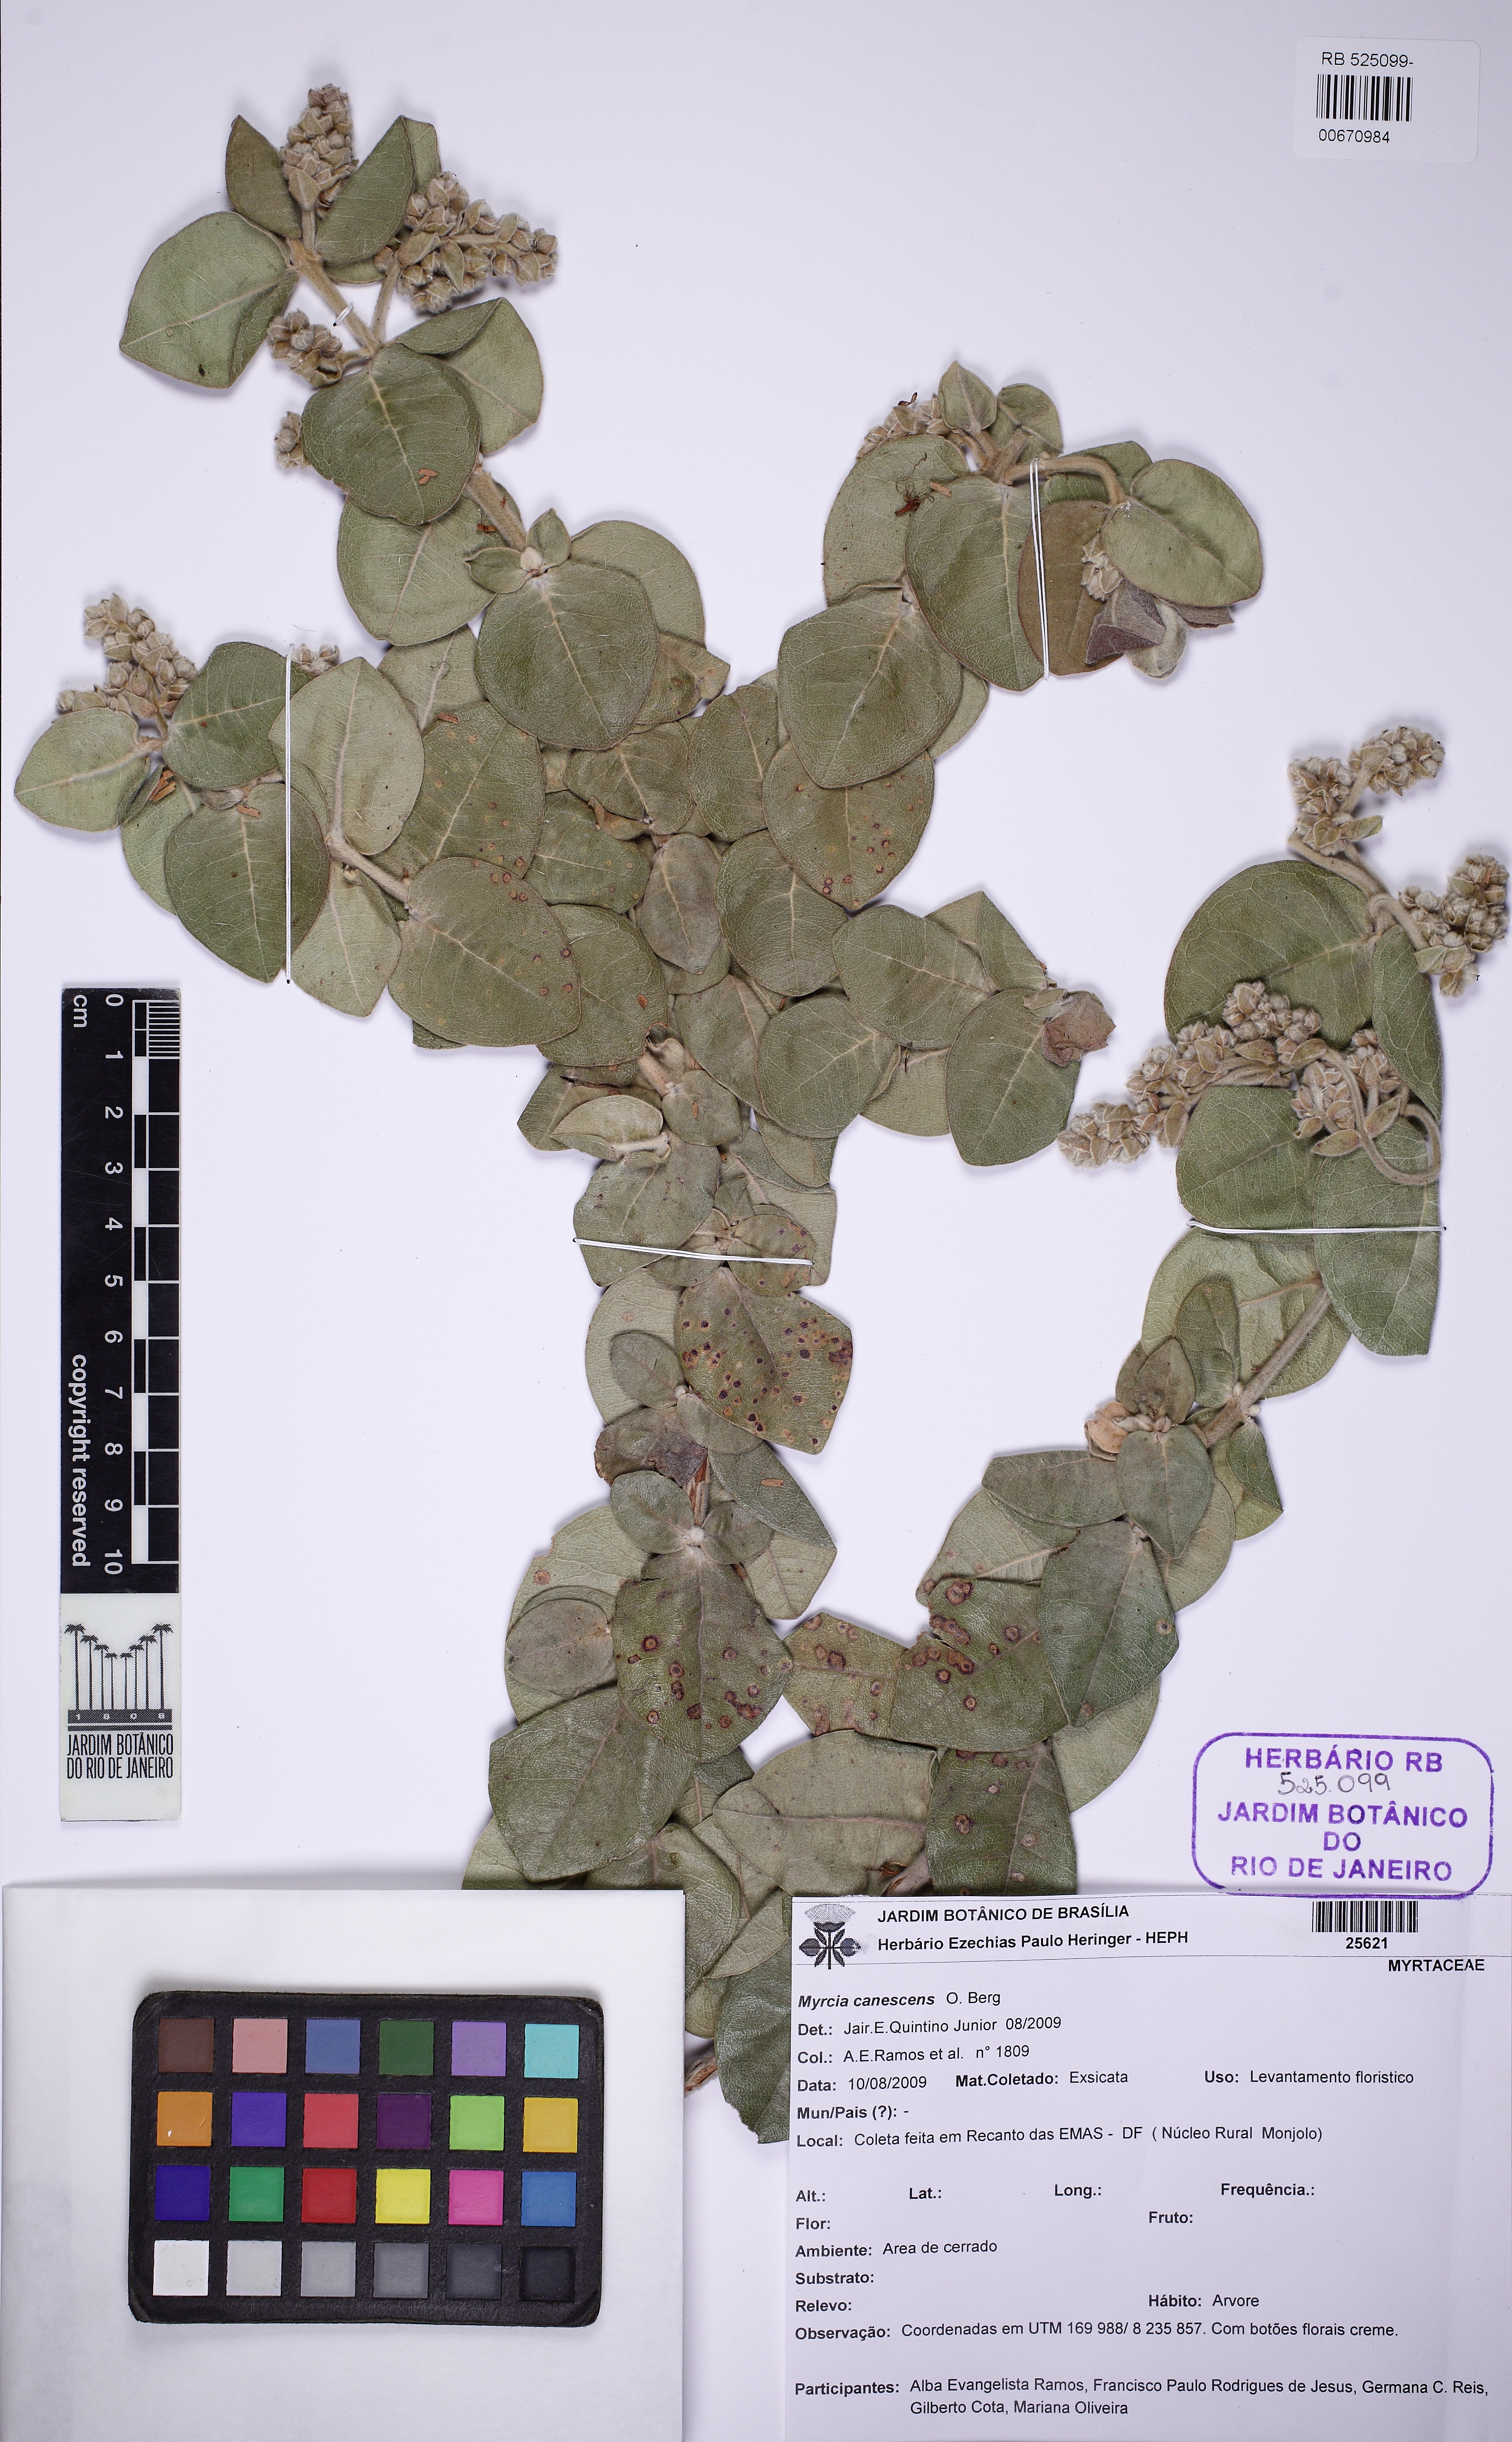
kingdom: Plantae
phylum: Tracheophyta
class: Magnoliopsida
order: Myrtales
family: Myrtaceae
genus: Myrcia
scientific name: Myrcia canescens
